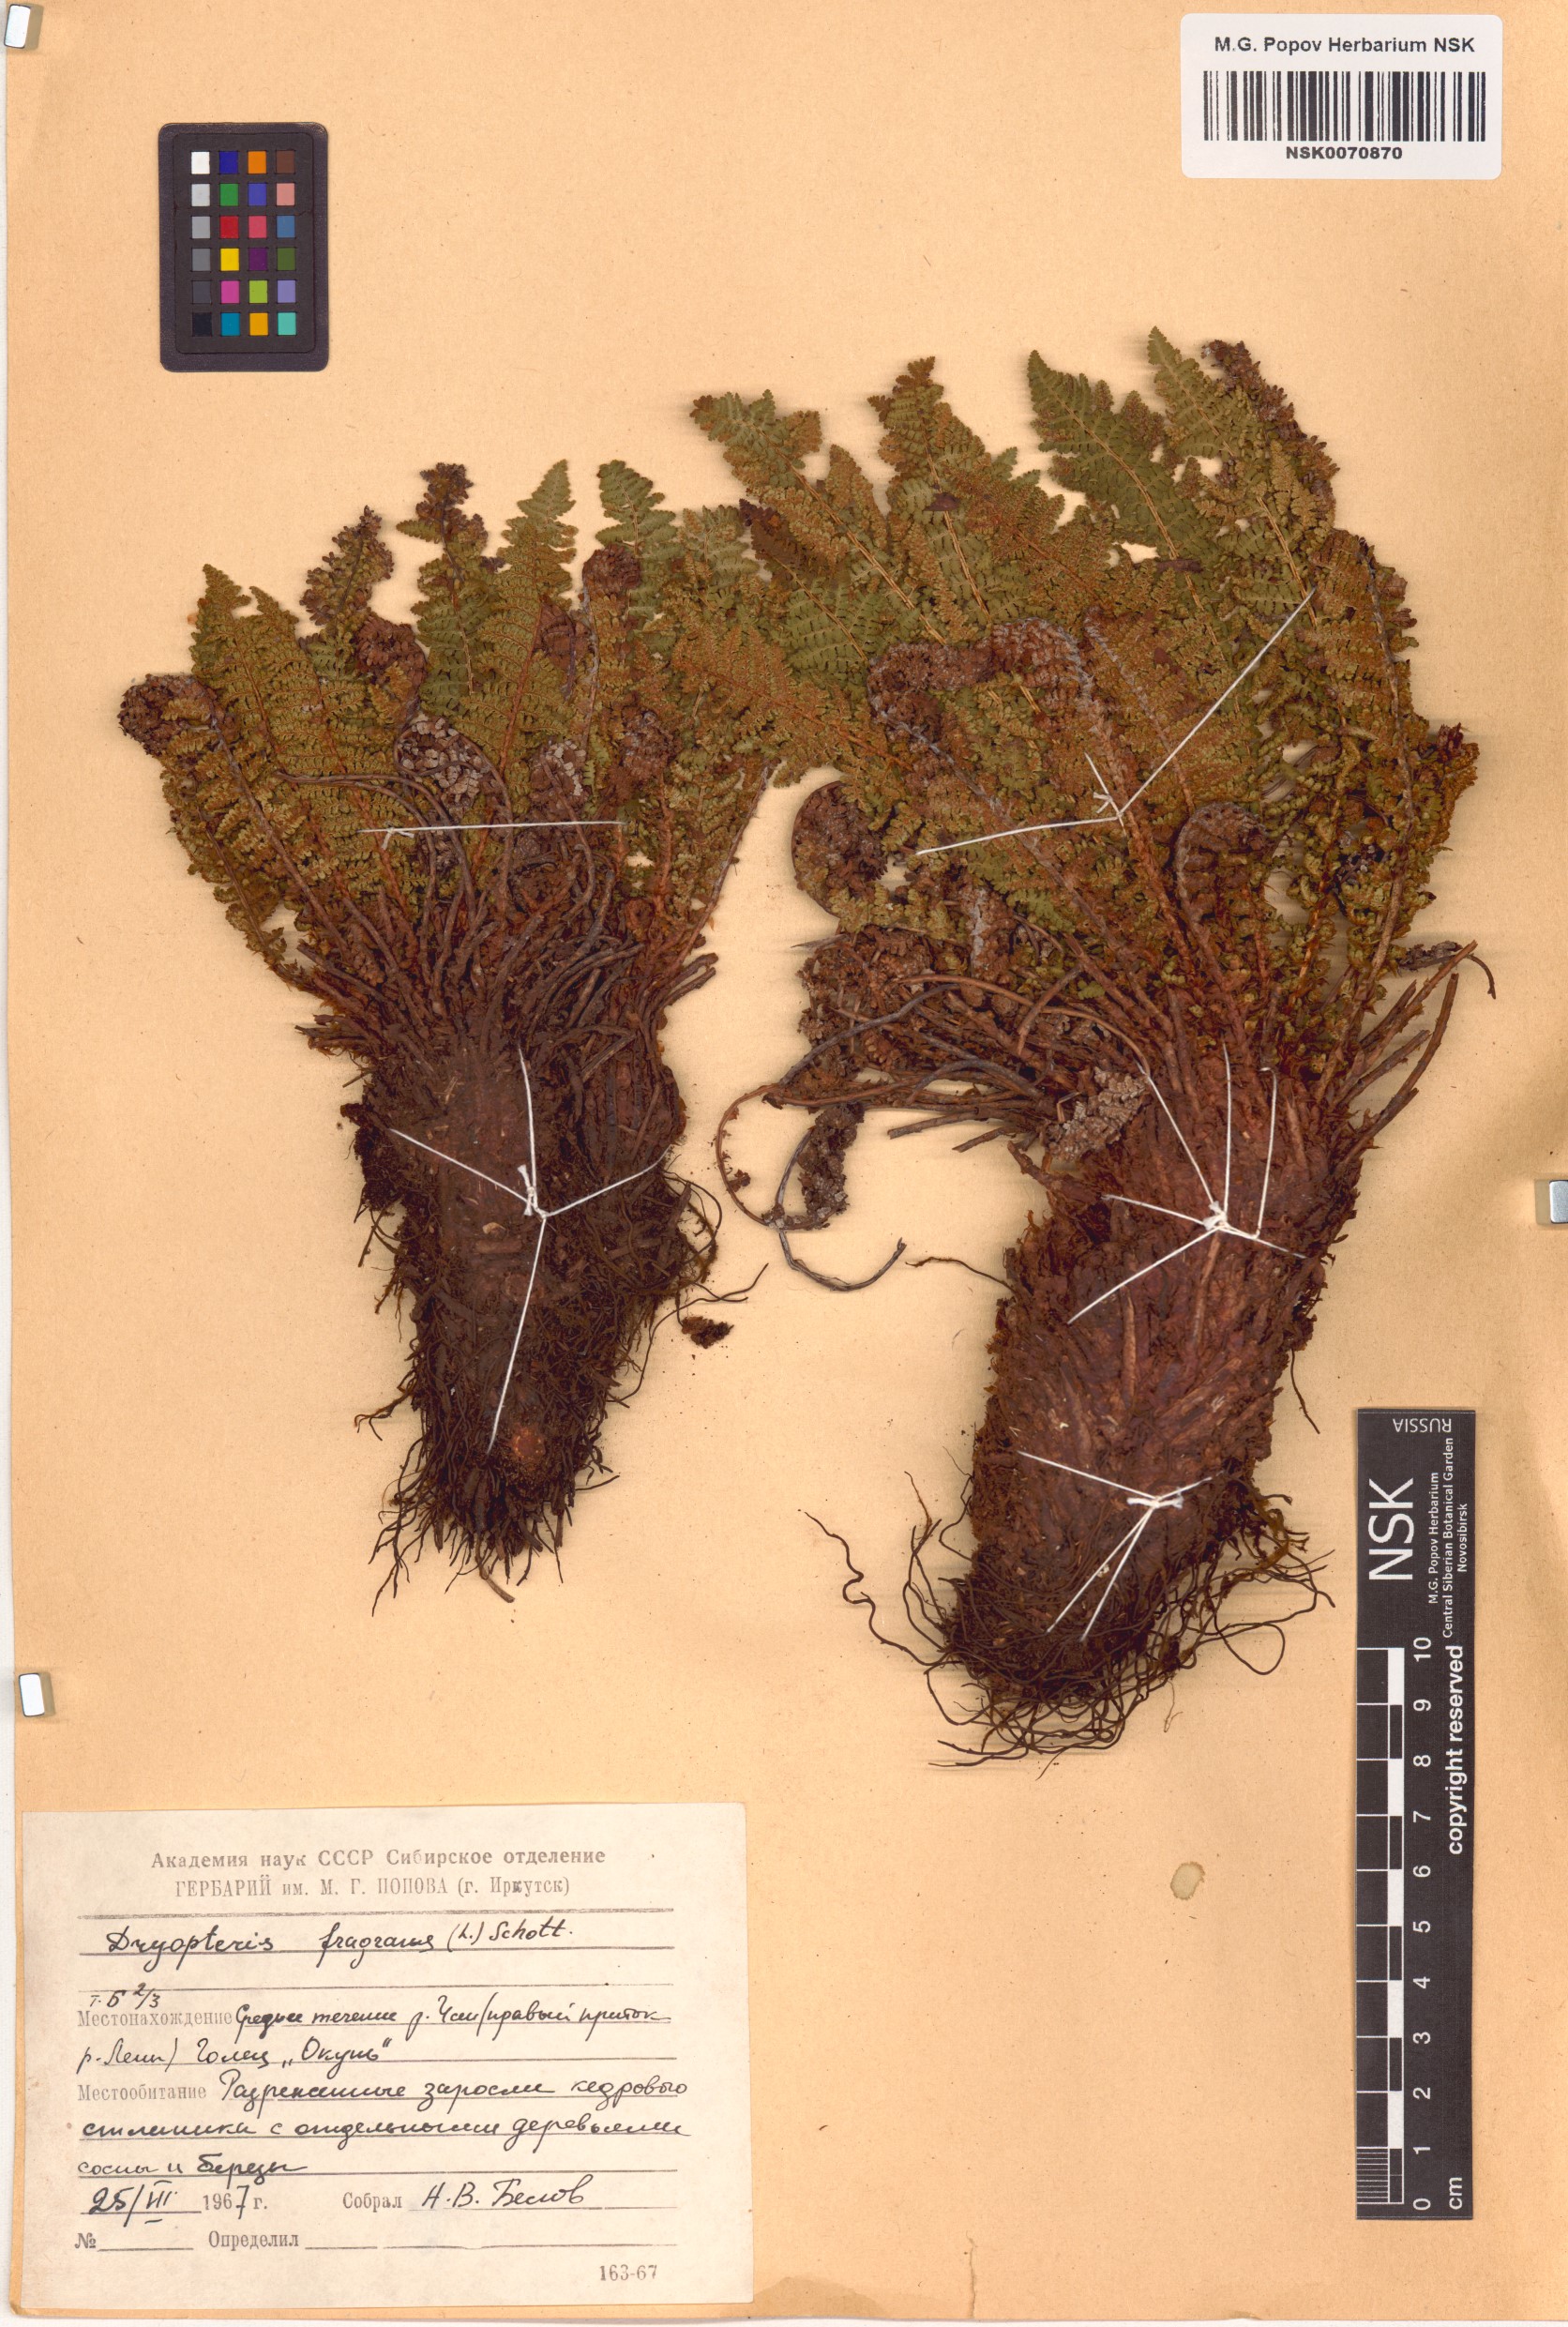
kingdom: Plantae
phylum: Tracheophyta
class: Polypodiopsida
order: Polypodiales
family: Dryopteridaceae
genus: Dryopteris
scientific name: Dryopteris fragrans
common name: Fragrant wood fern
